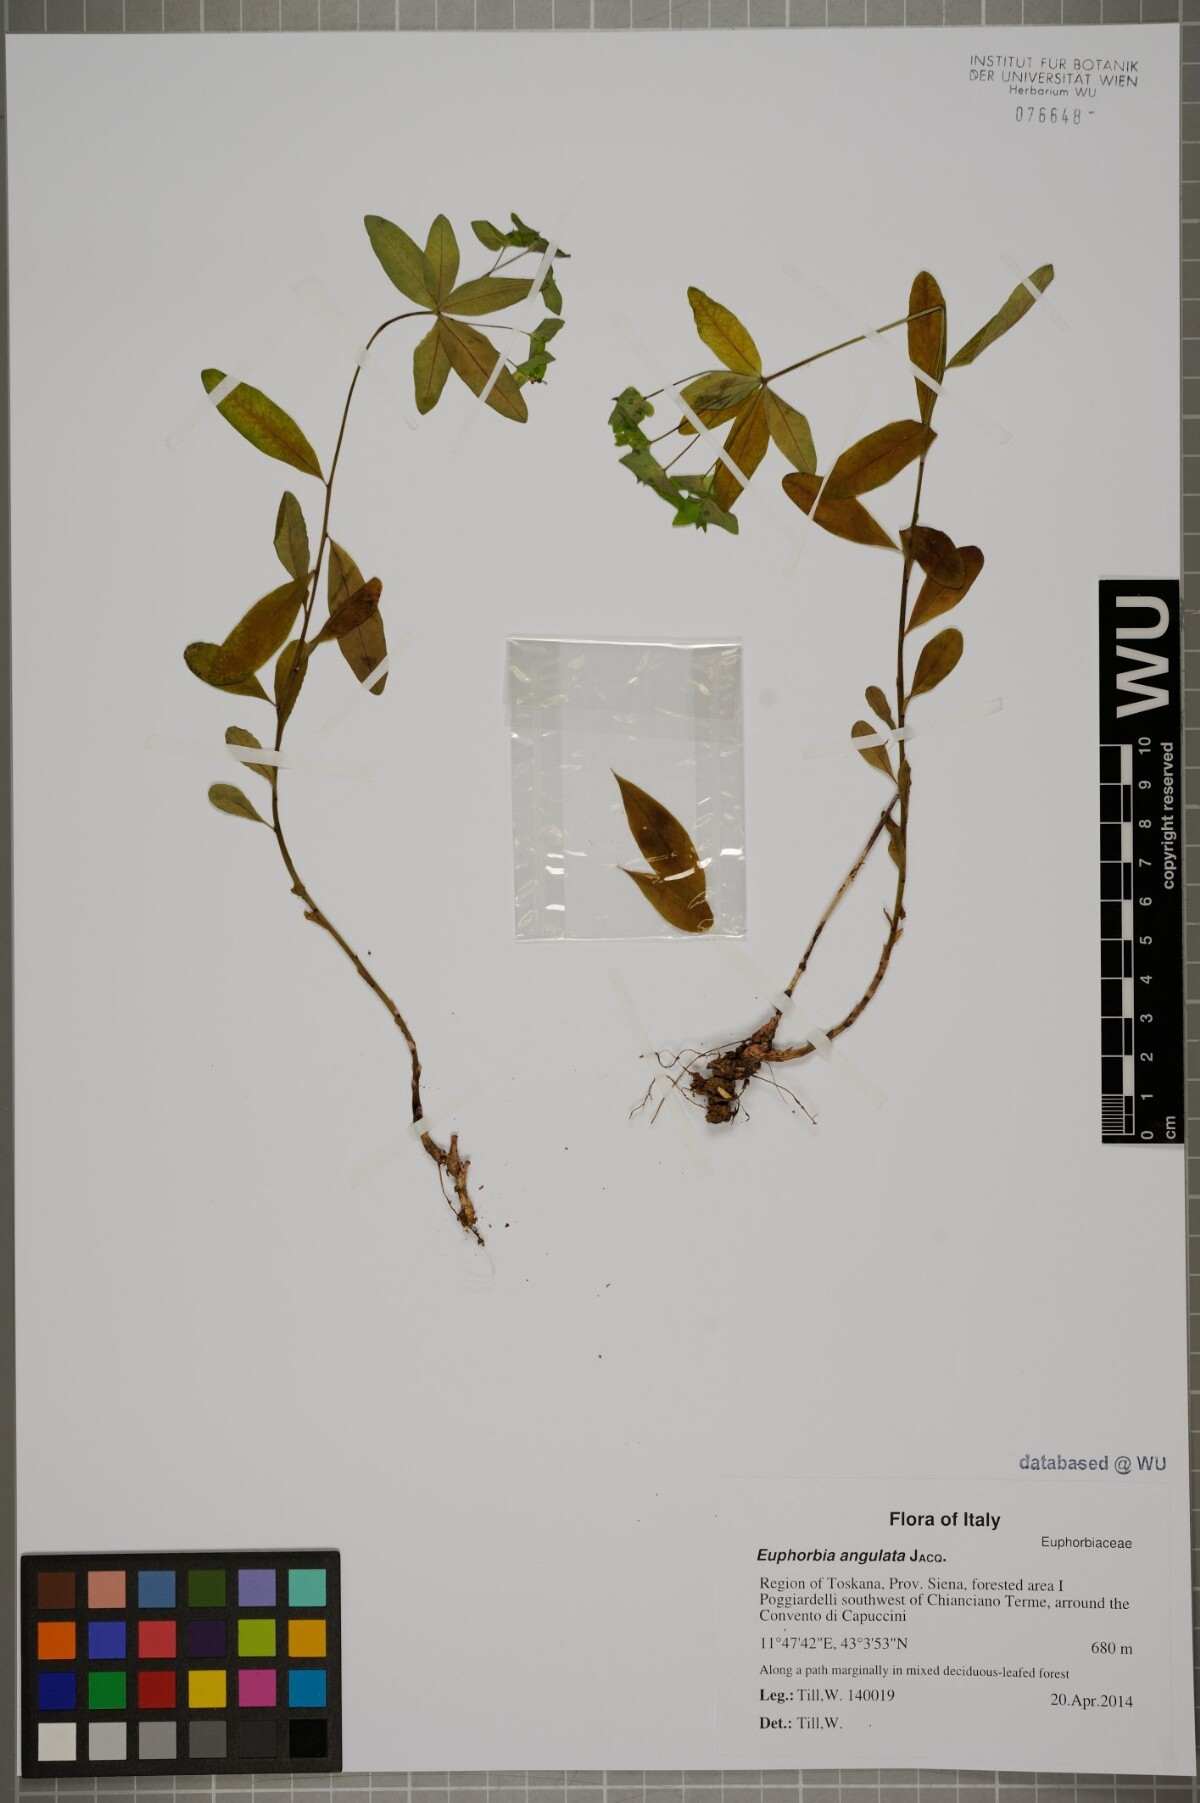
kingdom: Plantae
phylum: Tracheophyta
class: Magnoliopsida
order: Malpighiales
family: Euphorbiaceae
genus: Euphorbia
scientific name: Euphorbia angulata
